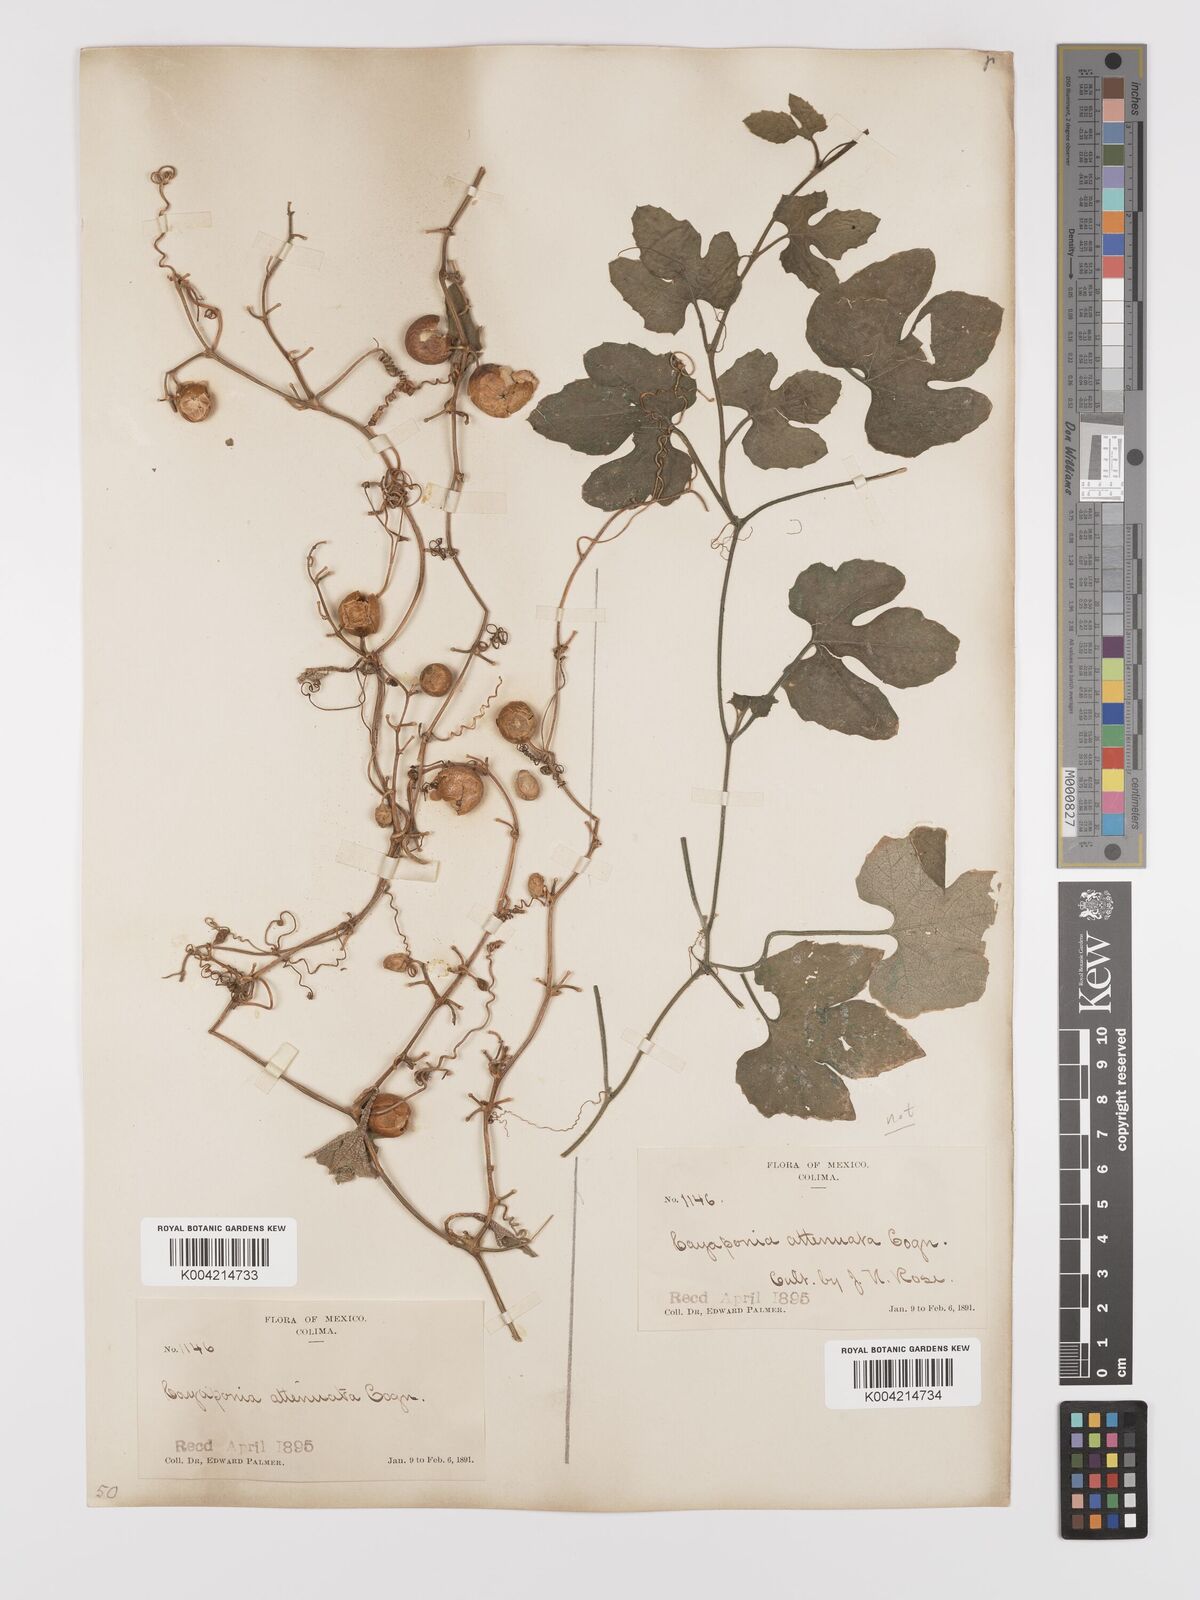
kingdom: Plantae
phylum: Tracheophyta
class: Magnoliopsida
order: Cucurbitales
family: Cucurbitaceae
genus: Cayaponia
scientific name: Cayaponia attenuata
